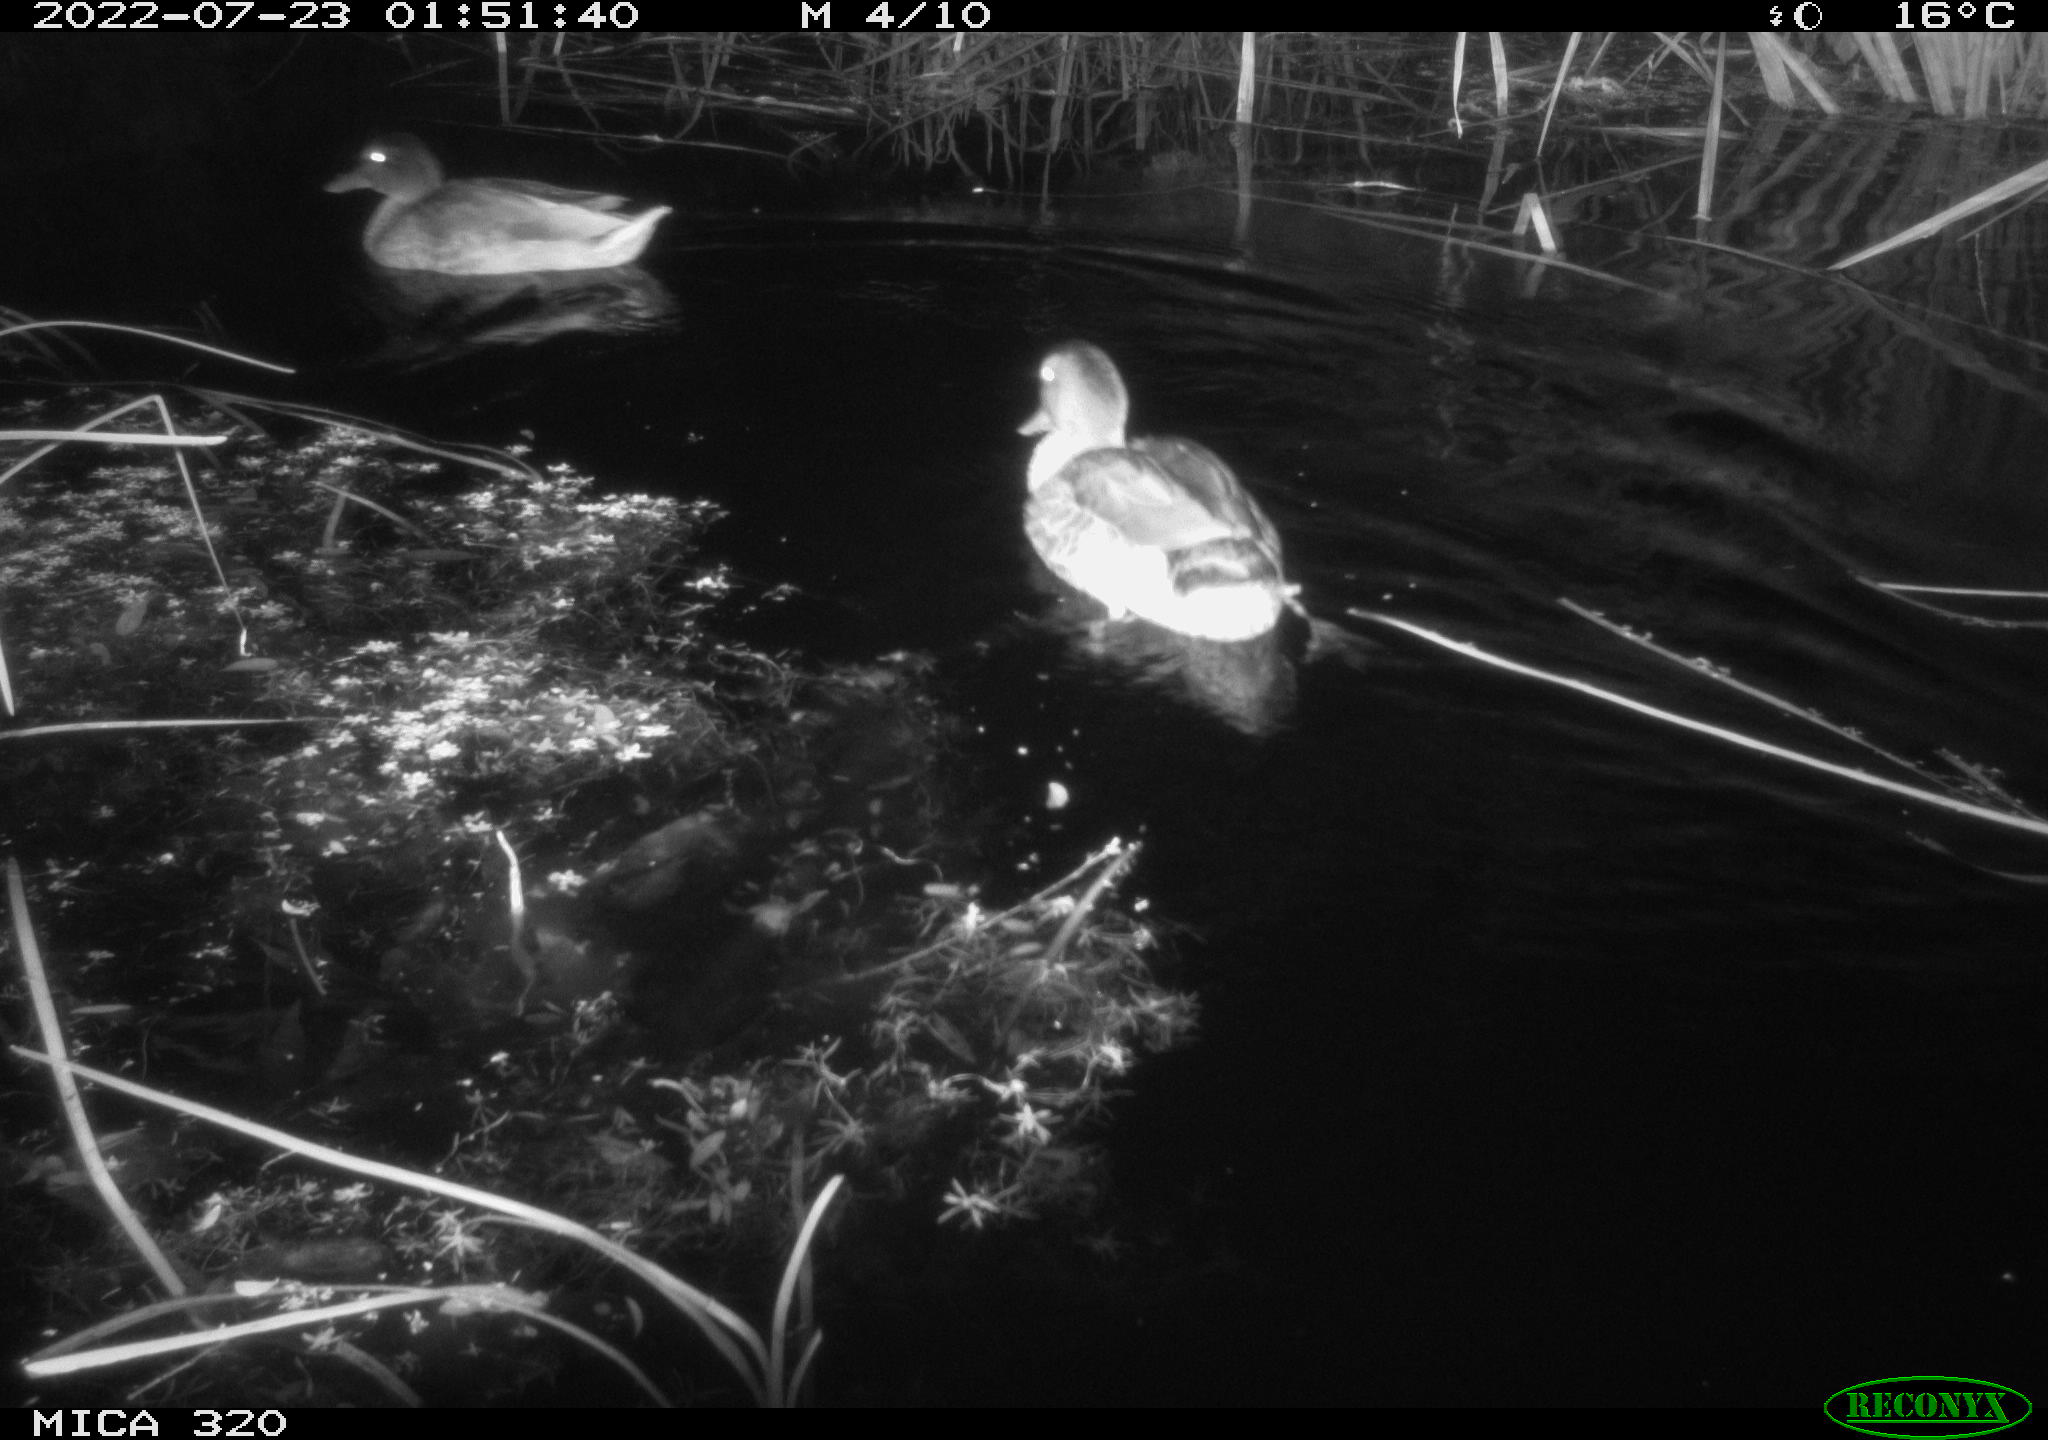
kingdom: Animalia
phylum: Chordata
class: Aves
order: Anseriformes
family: Anatidae
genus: Anas
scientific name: Anas platyrhynchos
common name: Mallard
